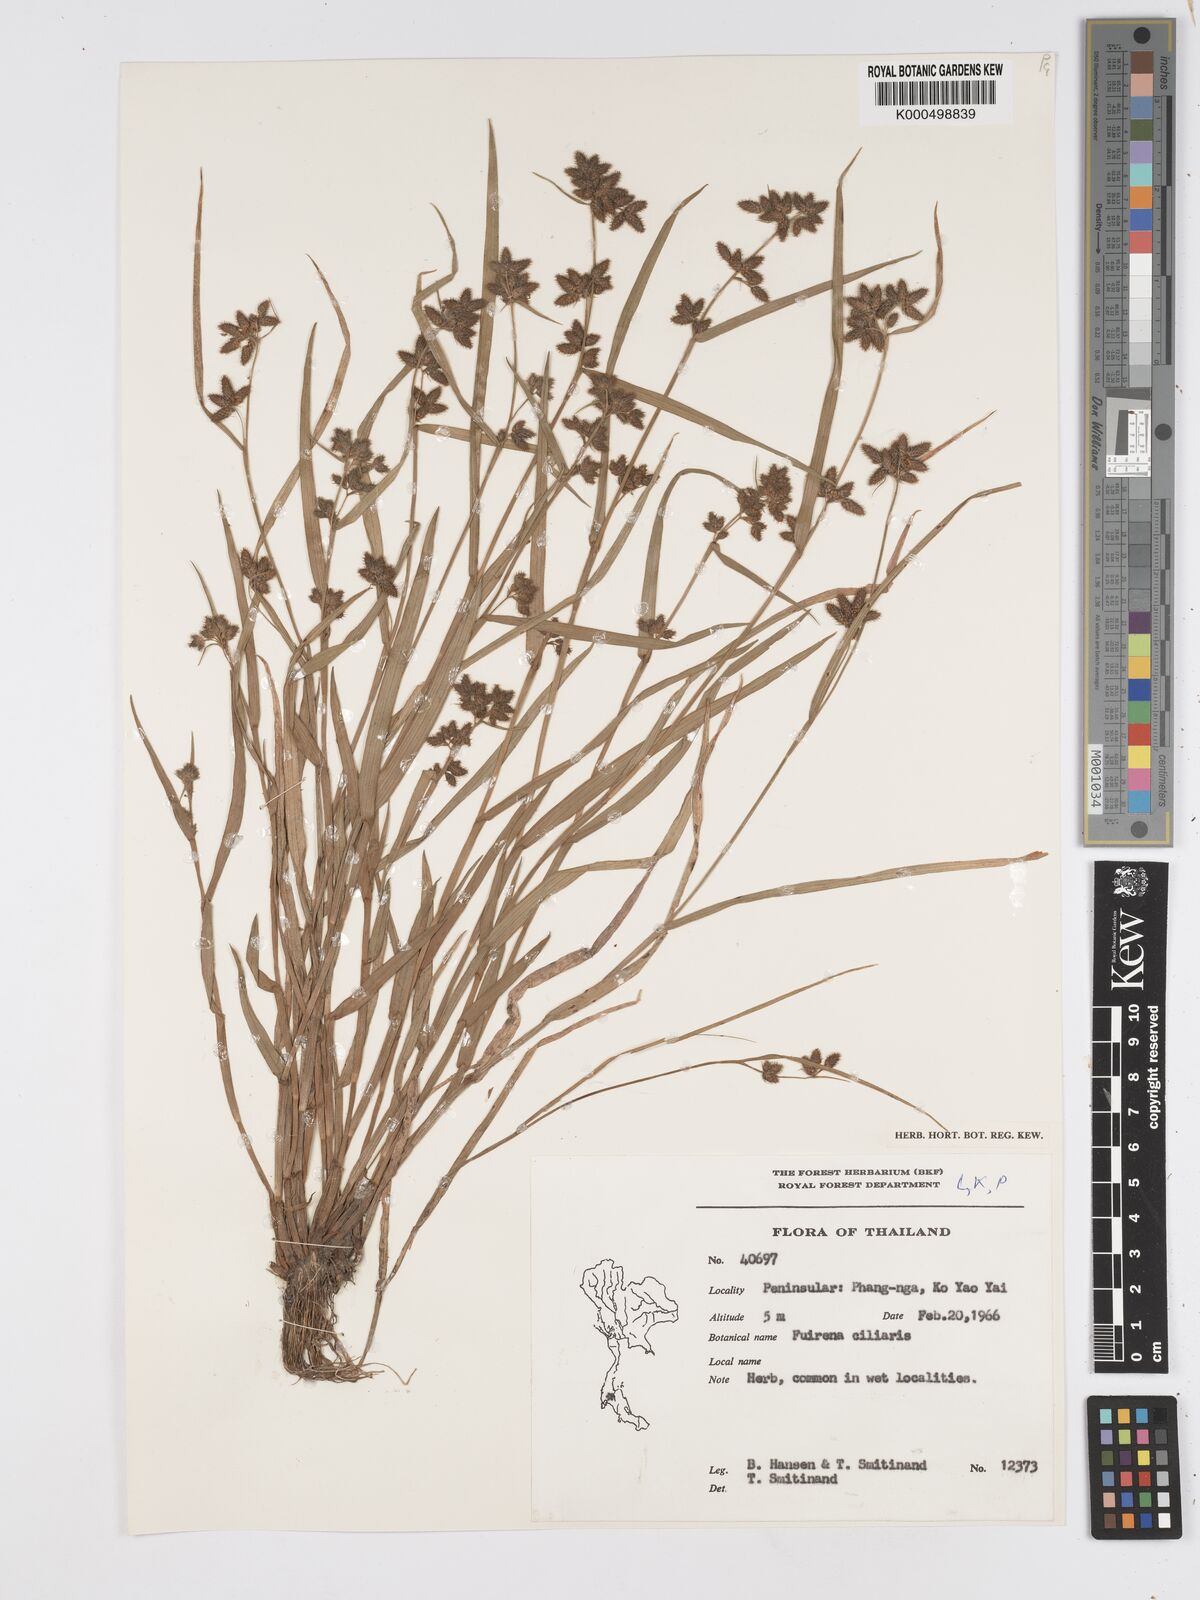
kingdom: Plantae
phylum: Tracheophyta
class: Liliopsida
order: Poales
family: Cyperaceae
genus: Fuirena
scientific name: Fuirena ciliaris
